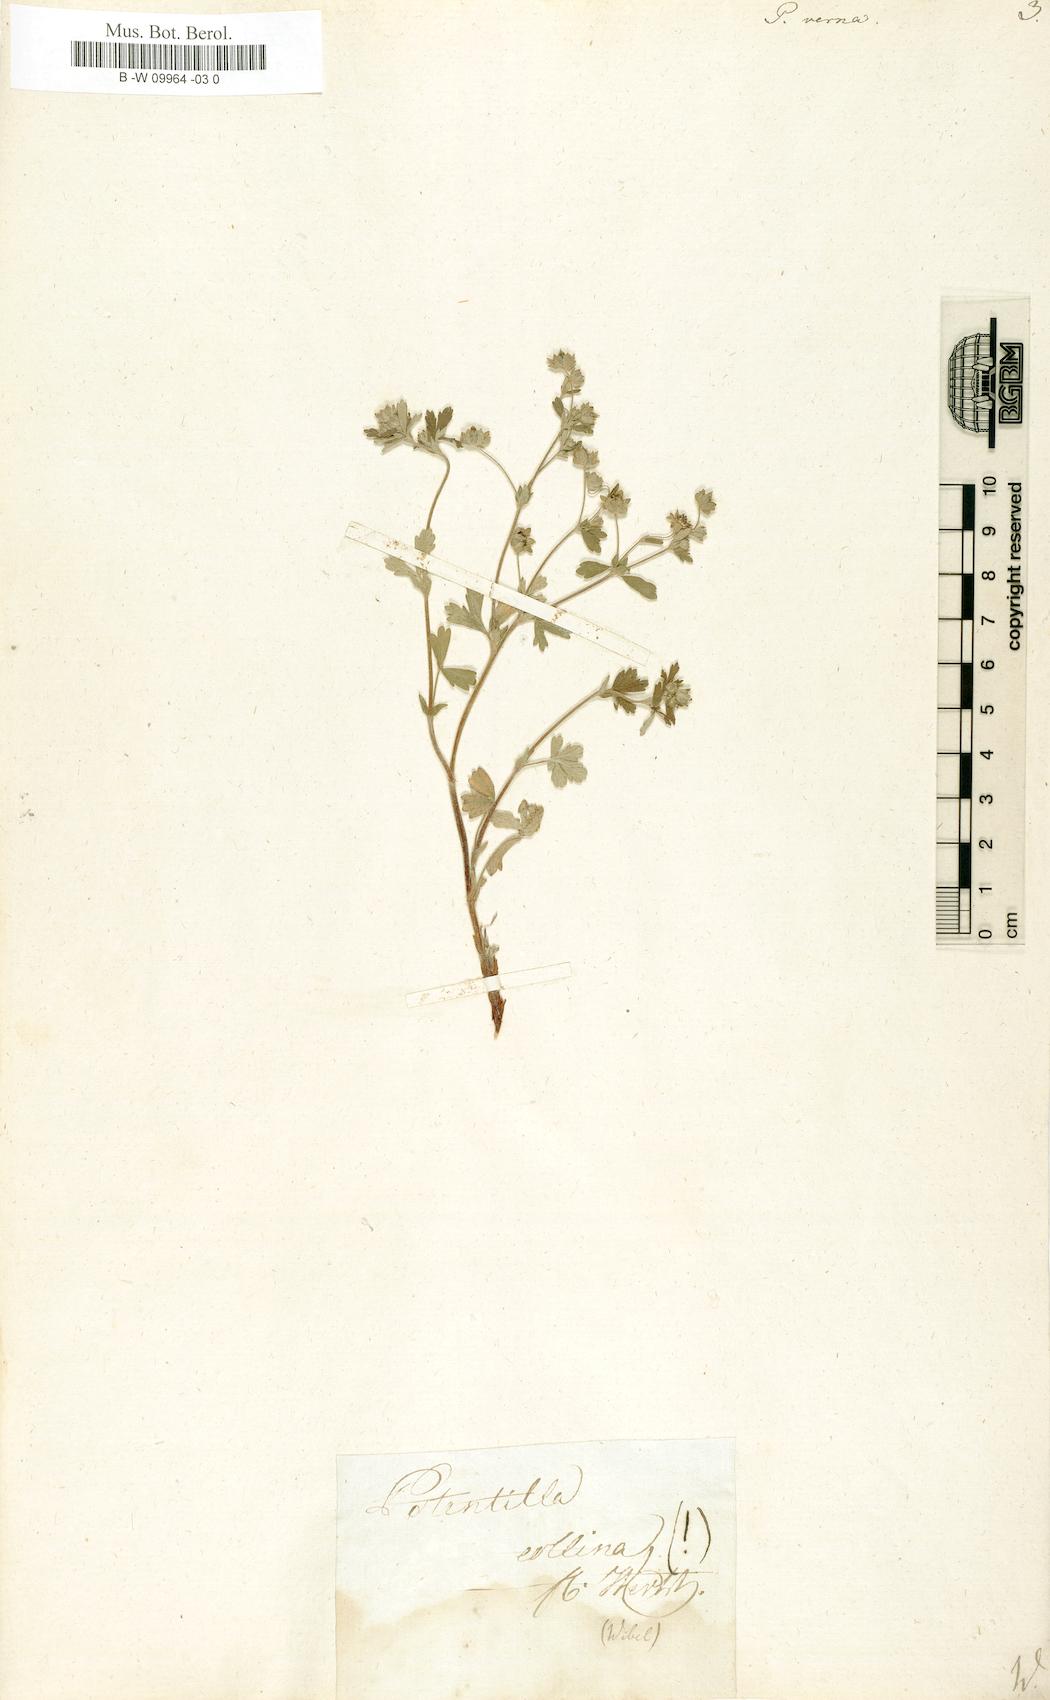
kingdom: Plantae
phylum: Tracheophyta
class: Magnoliopsida
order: Rosales
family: Rosaceae
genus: Potentilla
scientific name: Potentilla verna
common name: Spring cinquefoil
